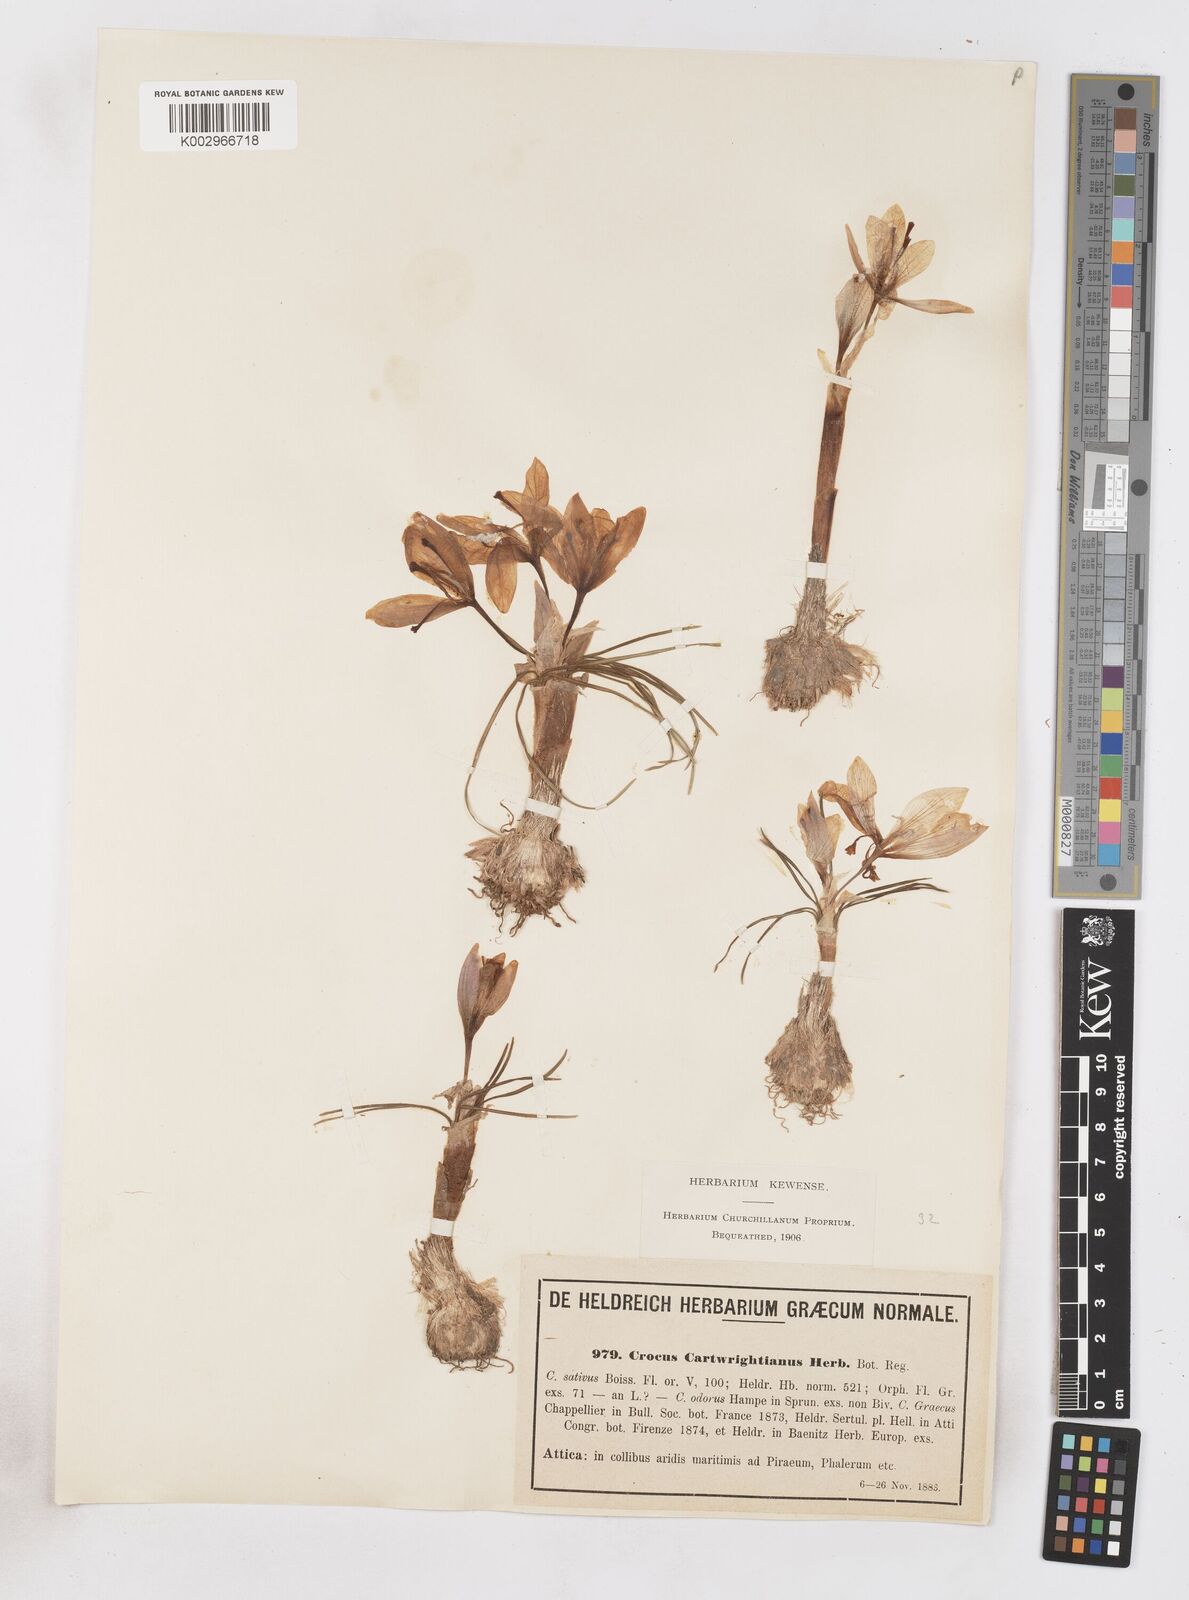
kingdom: Plantae
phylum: Tracheophyta
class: Liliopsida
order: Asparagales
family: Iridaceae
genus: Crocus
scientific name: Crocus cartwrightianus
